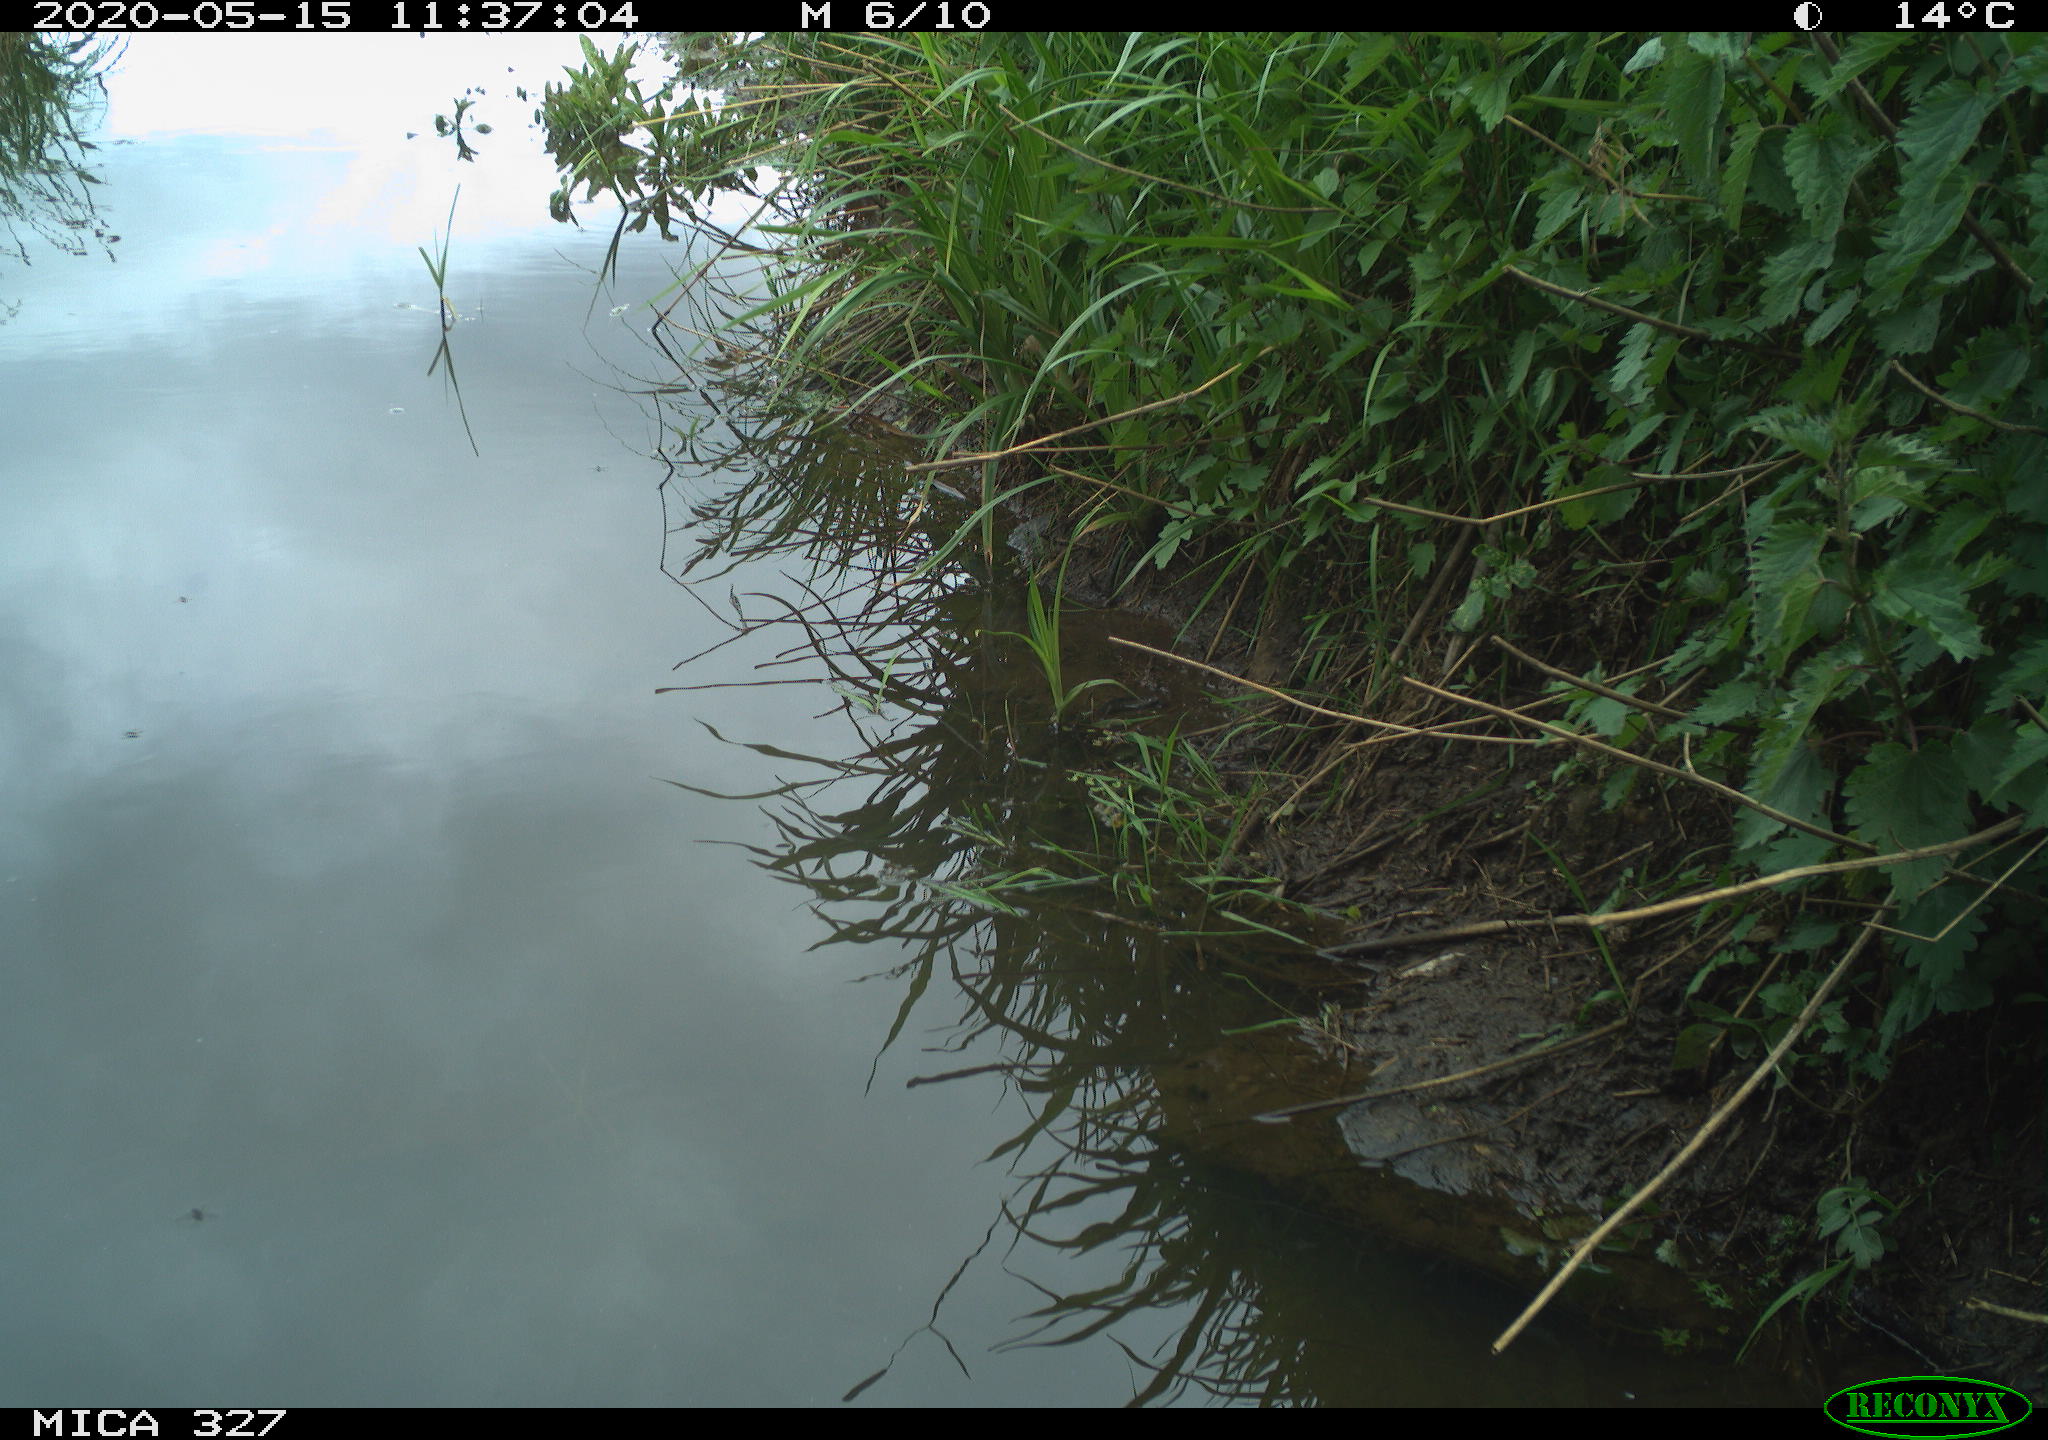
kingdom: Animalia
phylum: Chordata
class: Mammalia
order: Rodentia
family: Muridae
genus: Rattus
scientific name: Rattus norvegicus
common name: Brown rat
